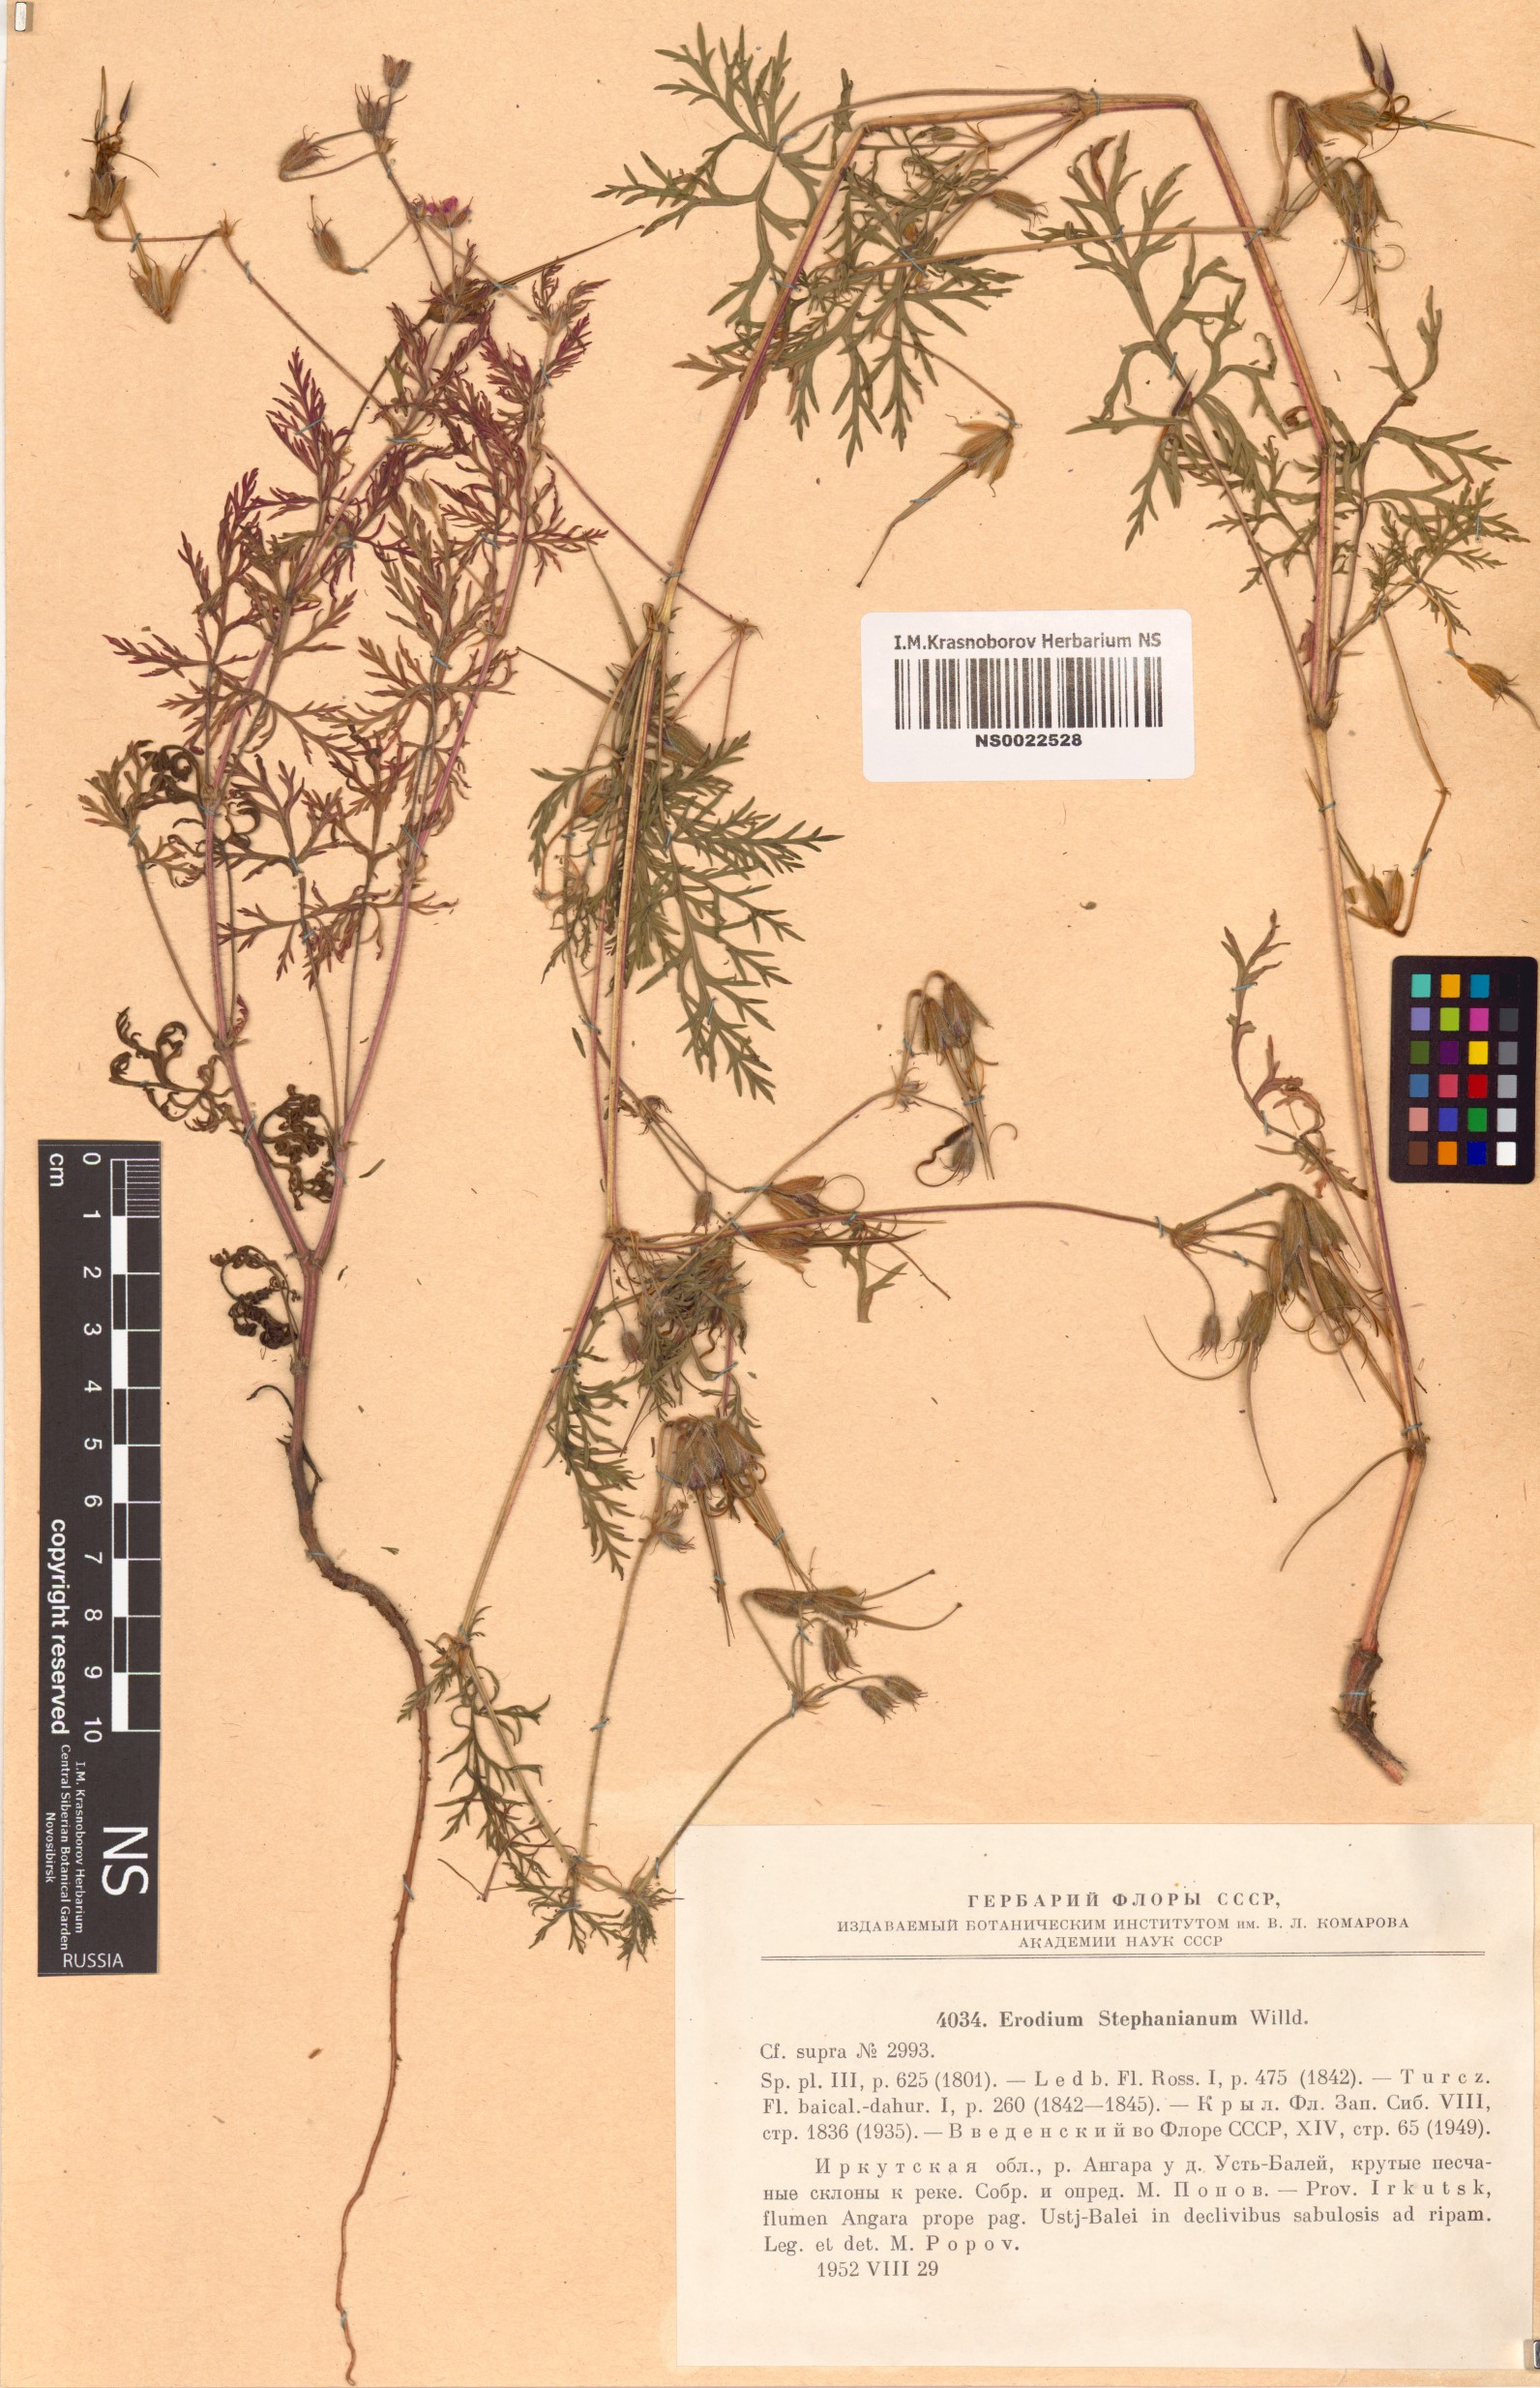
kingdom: Plantae
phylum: Tracheophyta
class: Magnoliopsida
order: Geraniales
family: Geraniaceae
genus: Erodium
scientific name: Erodium stephanianum
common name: Stephen's stork's bill
